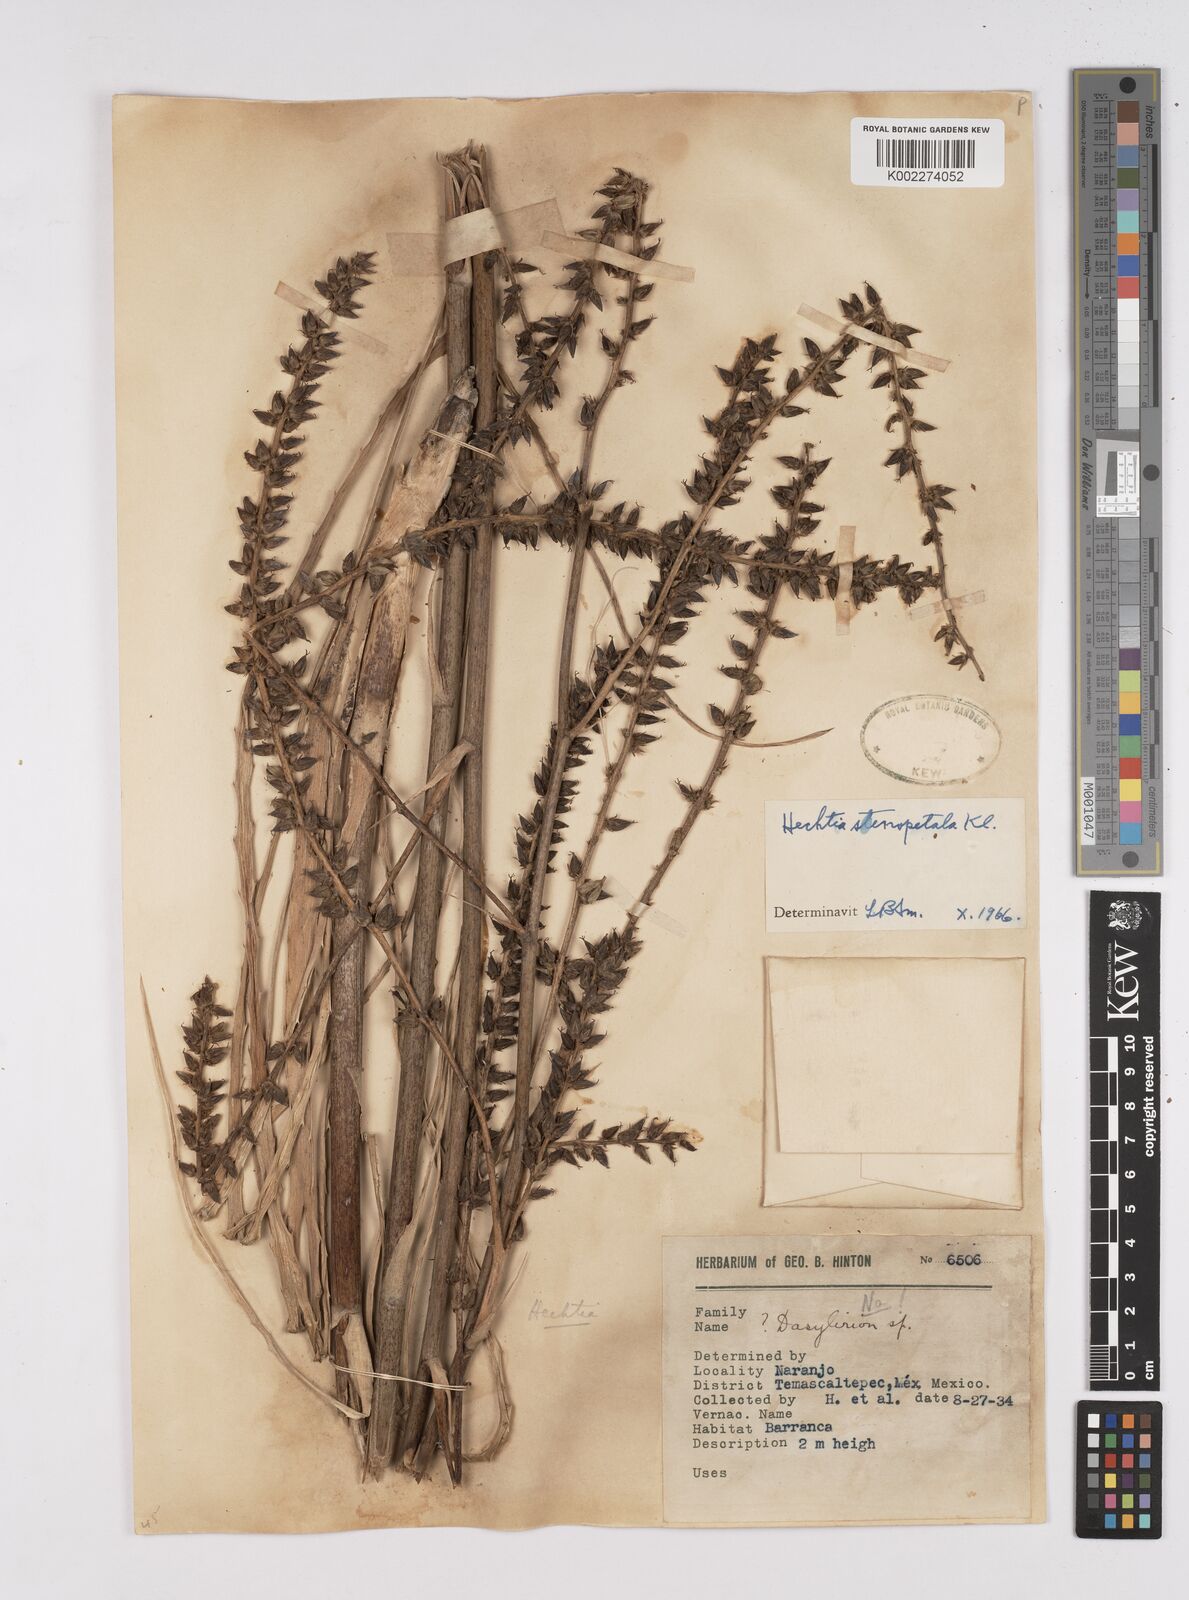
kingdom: Plantae
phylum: Tracheophyta
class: Liliopsida
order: Poales
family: Bromeliaceae
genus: Hechtia
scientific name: Hechtia stenopetala
